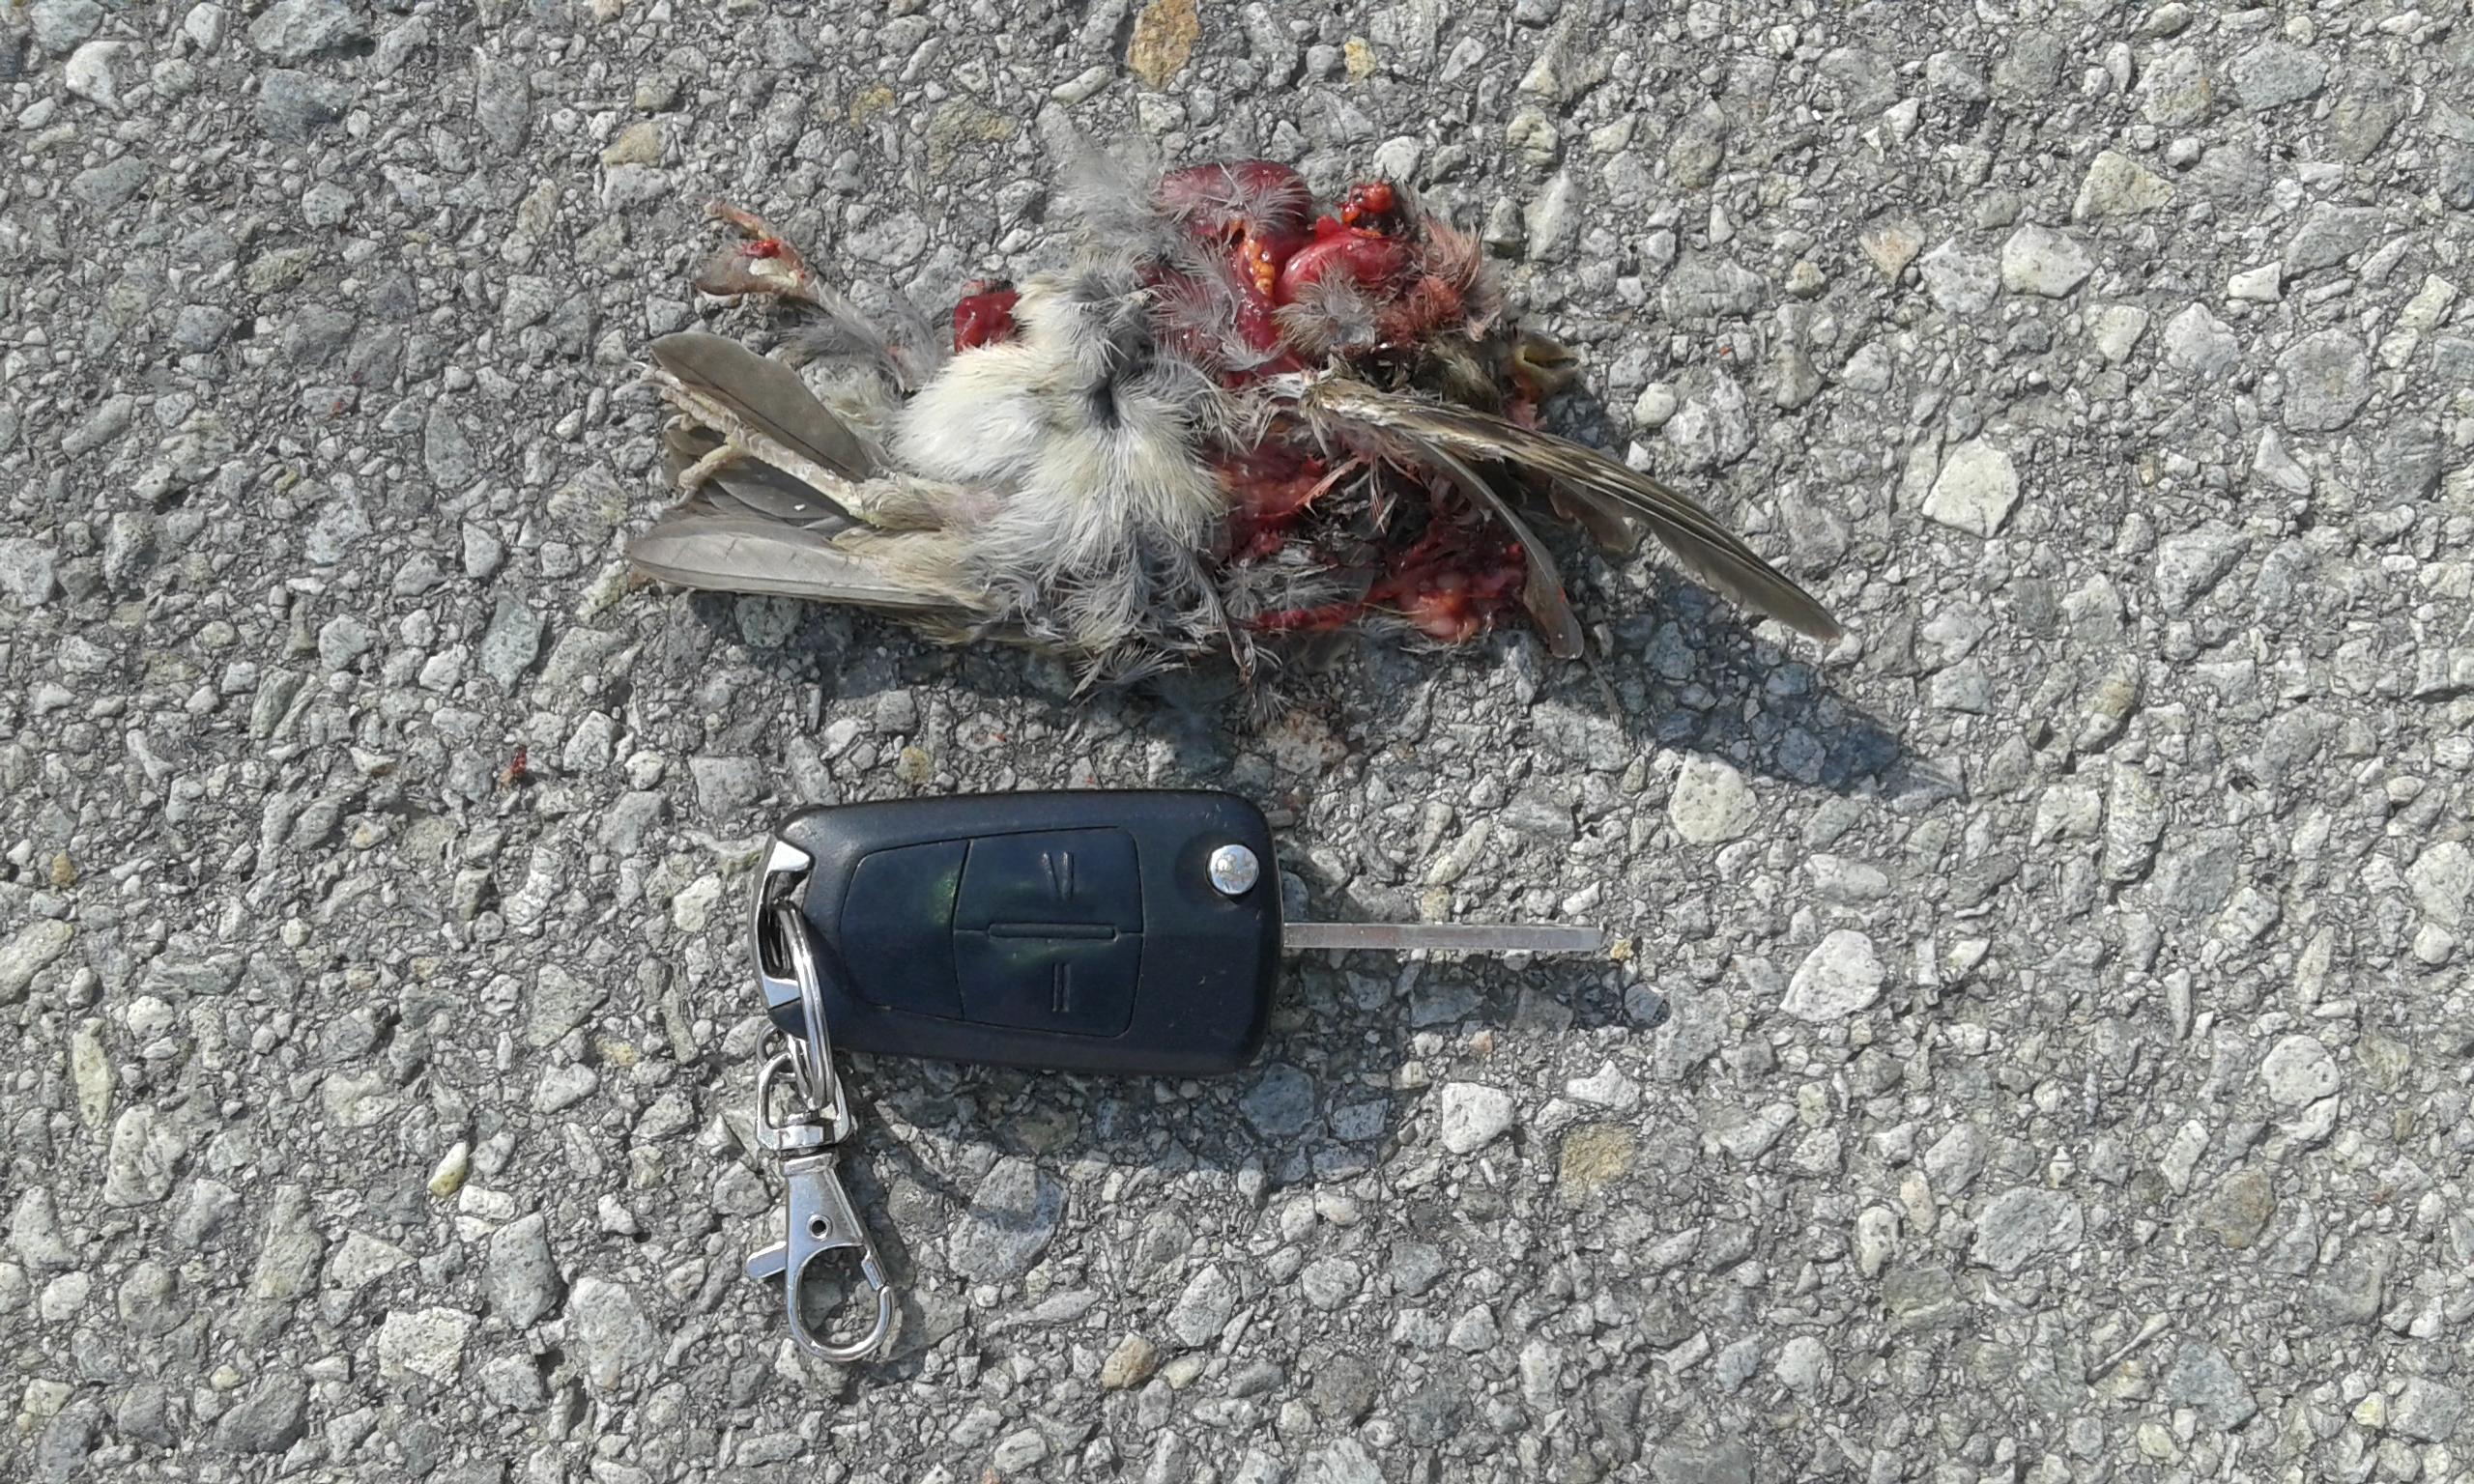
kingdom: Animalia
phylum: Chordata
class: Aves
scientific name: Aves
